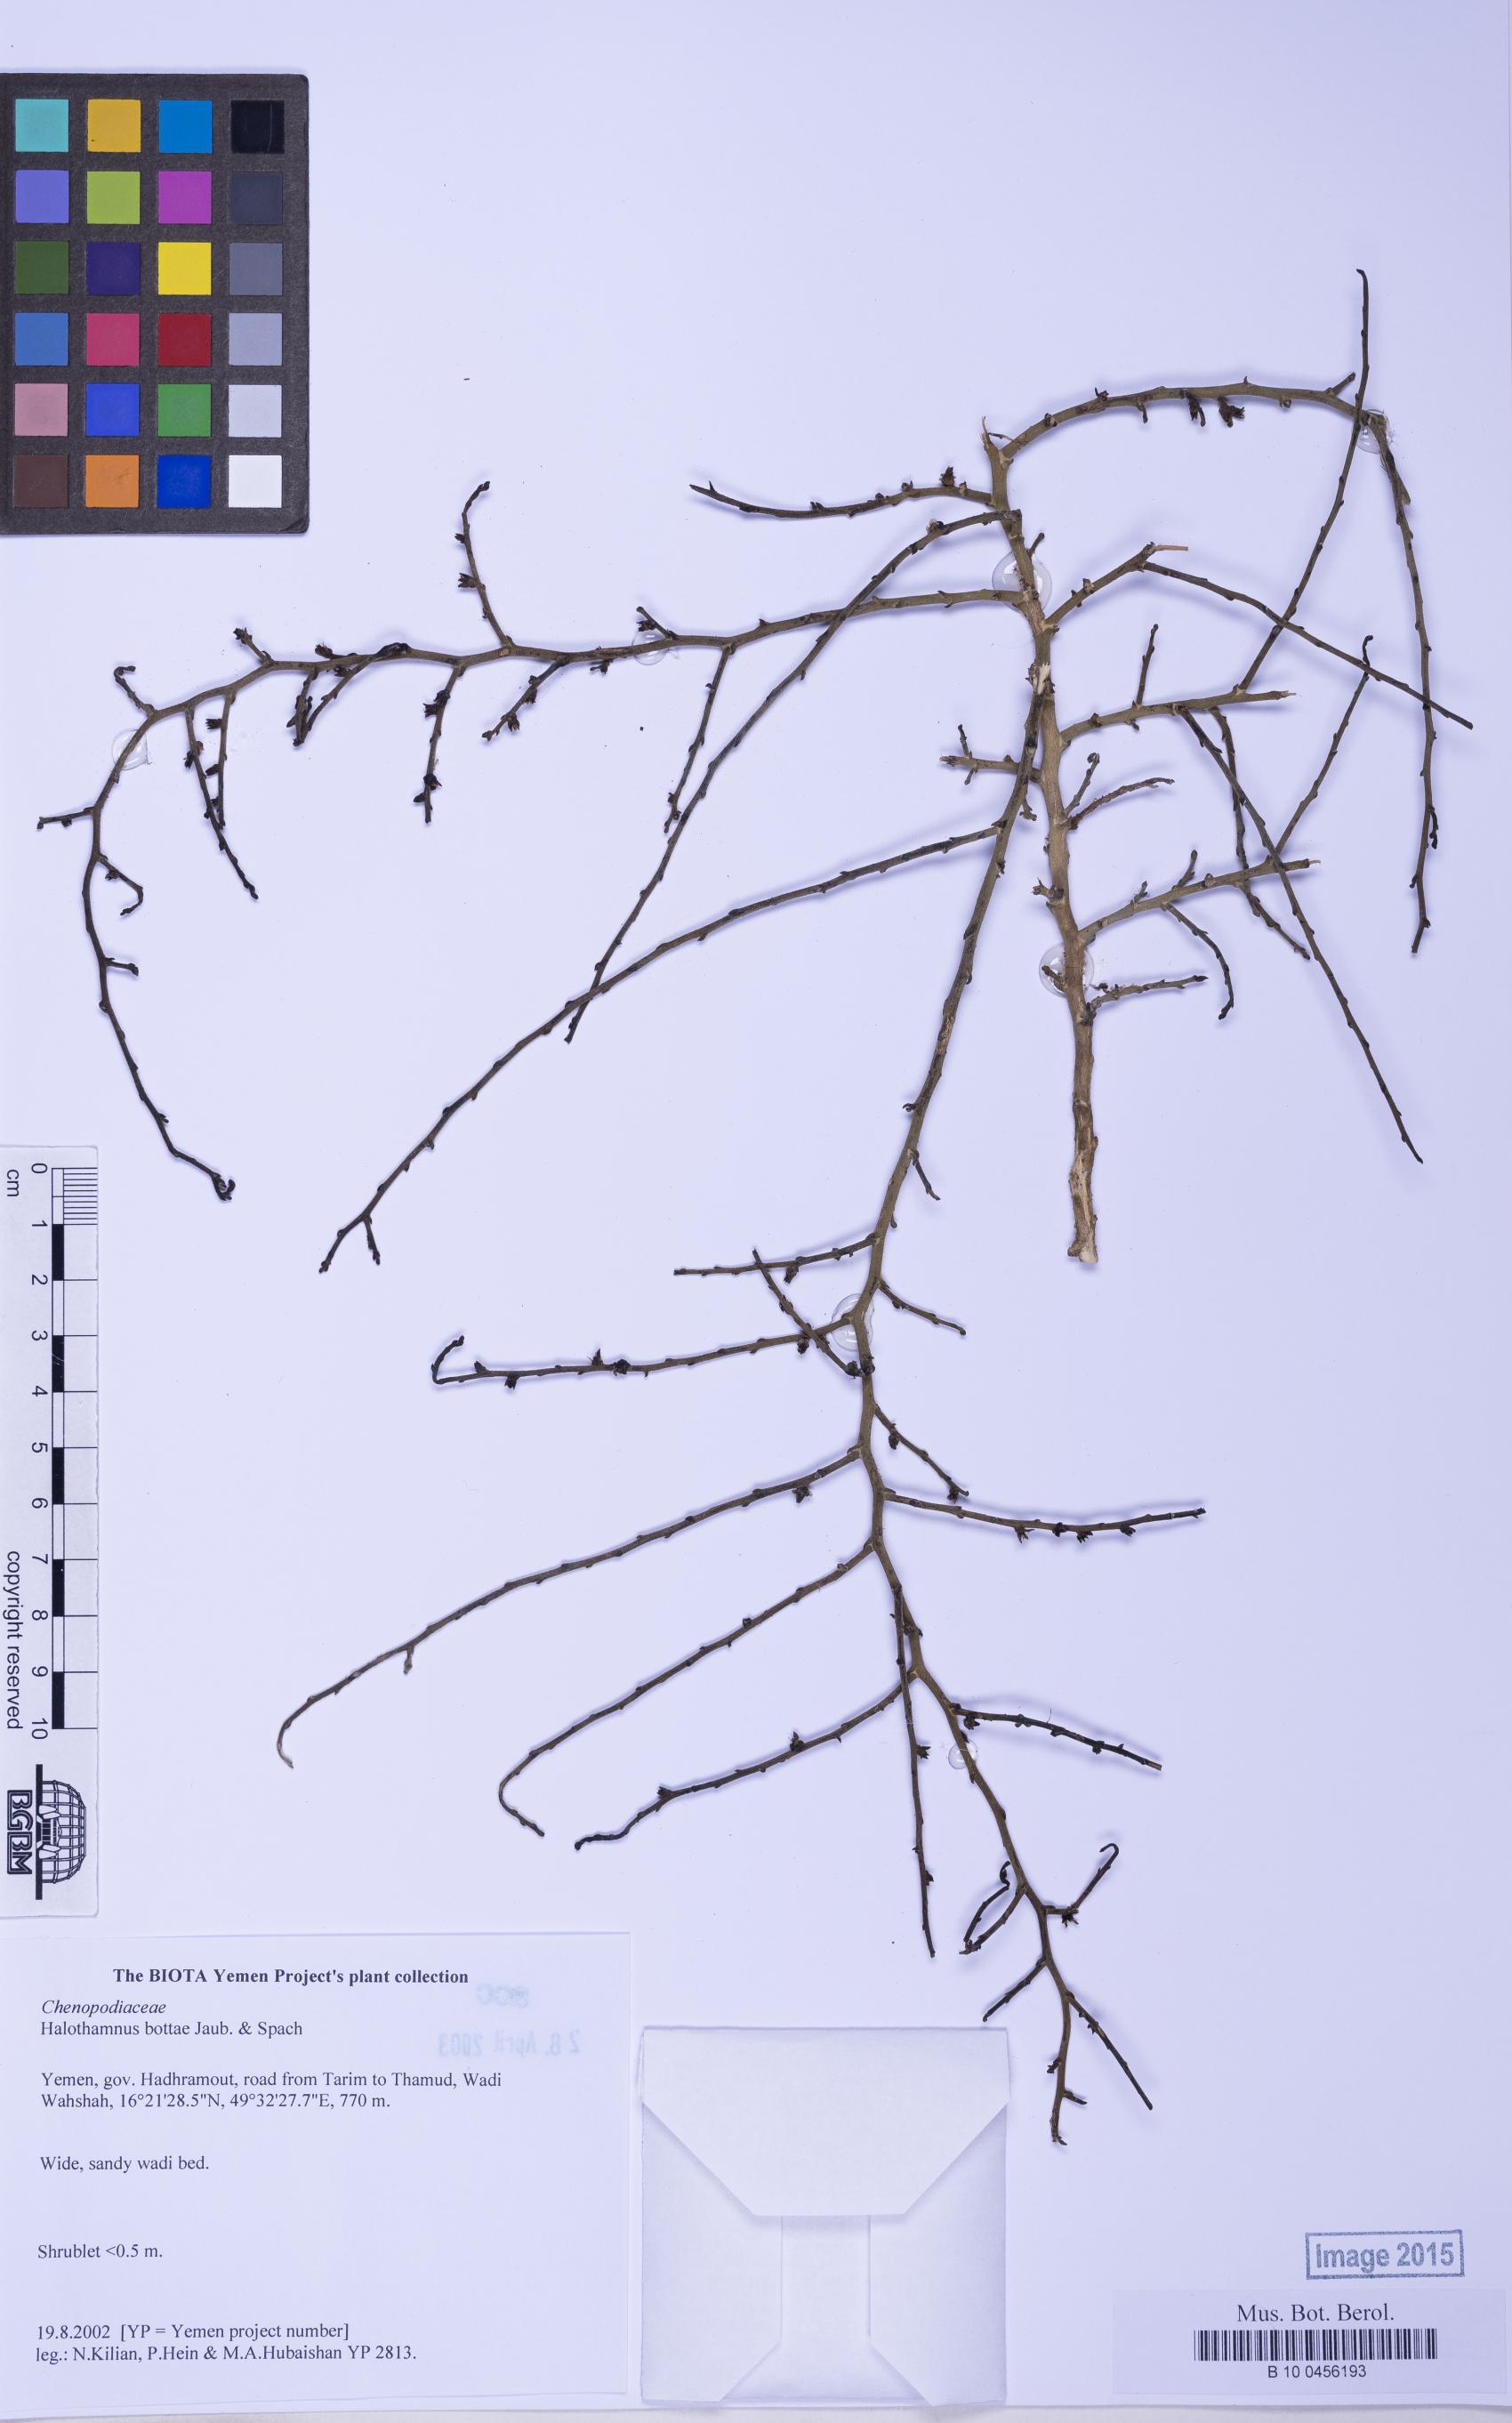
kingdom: Plantae
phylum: Tracheophyta
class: Magnoliopsida
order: Caryophyllales
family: Amaranthaceae
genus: Halothamnus
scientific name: Halothamnus bottae
